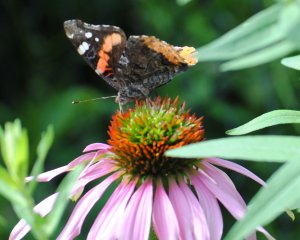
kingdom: Animalia
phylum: Arthropoda
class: Insecta
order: Lepidoptera
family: Nymphalidae
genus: Vanessa
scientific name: Vanessa atalanta
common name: Red Admiral
